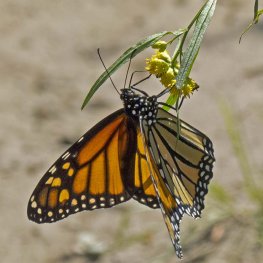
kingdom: Animalia
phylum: Arthropoda
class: Insecta
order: Lepidoptera
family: Nymphalidae
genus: Danaus
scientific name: Danaus plexippus
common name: Monarch
